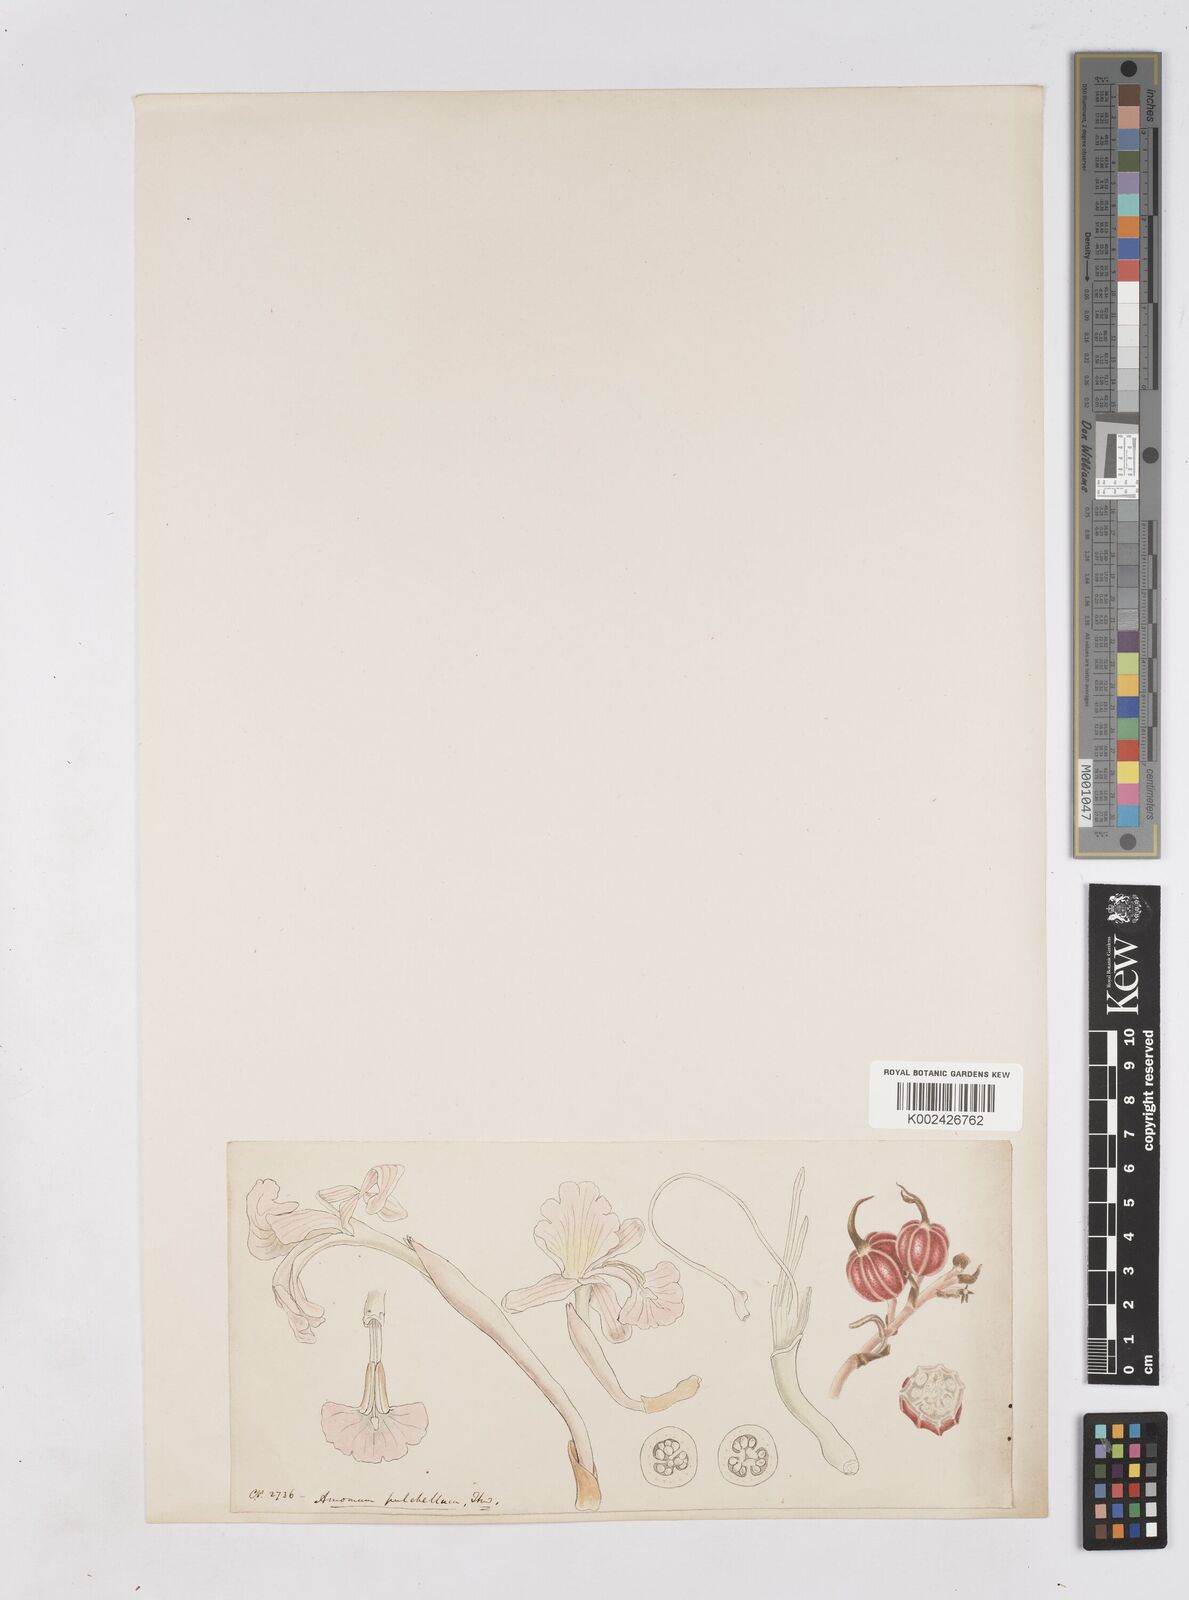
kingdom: Plantae
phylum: Tracheophyta
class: Liliopsida
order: Zingiberales
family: Zingiberaceae
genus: Cyphostigma
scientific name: Cyphostigma pulchellum
